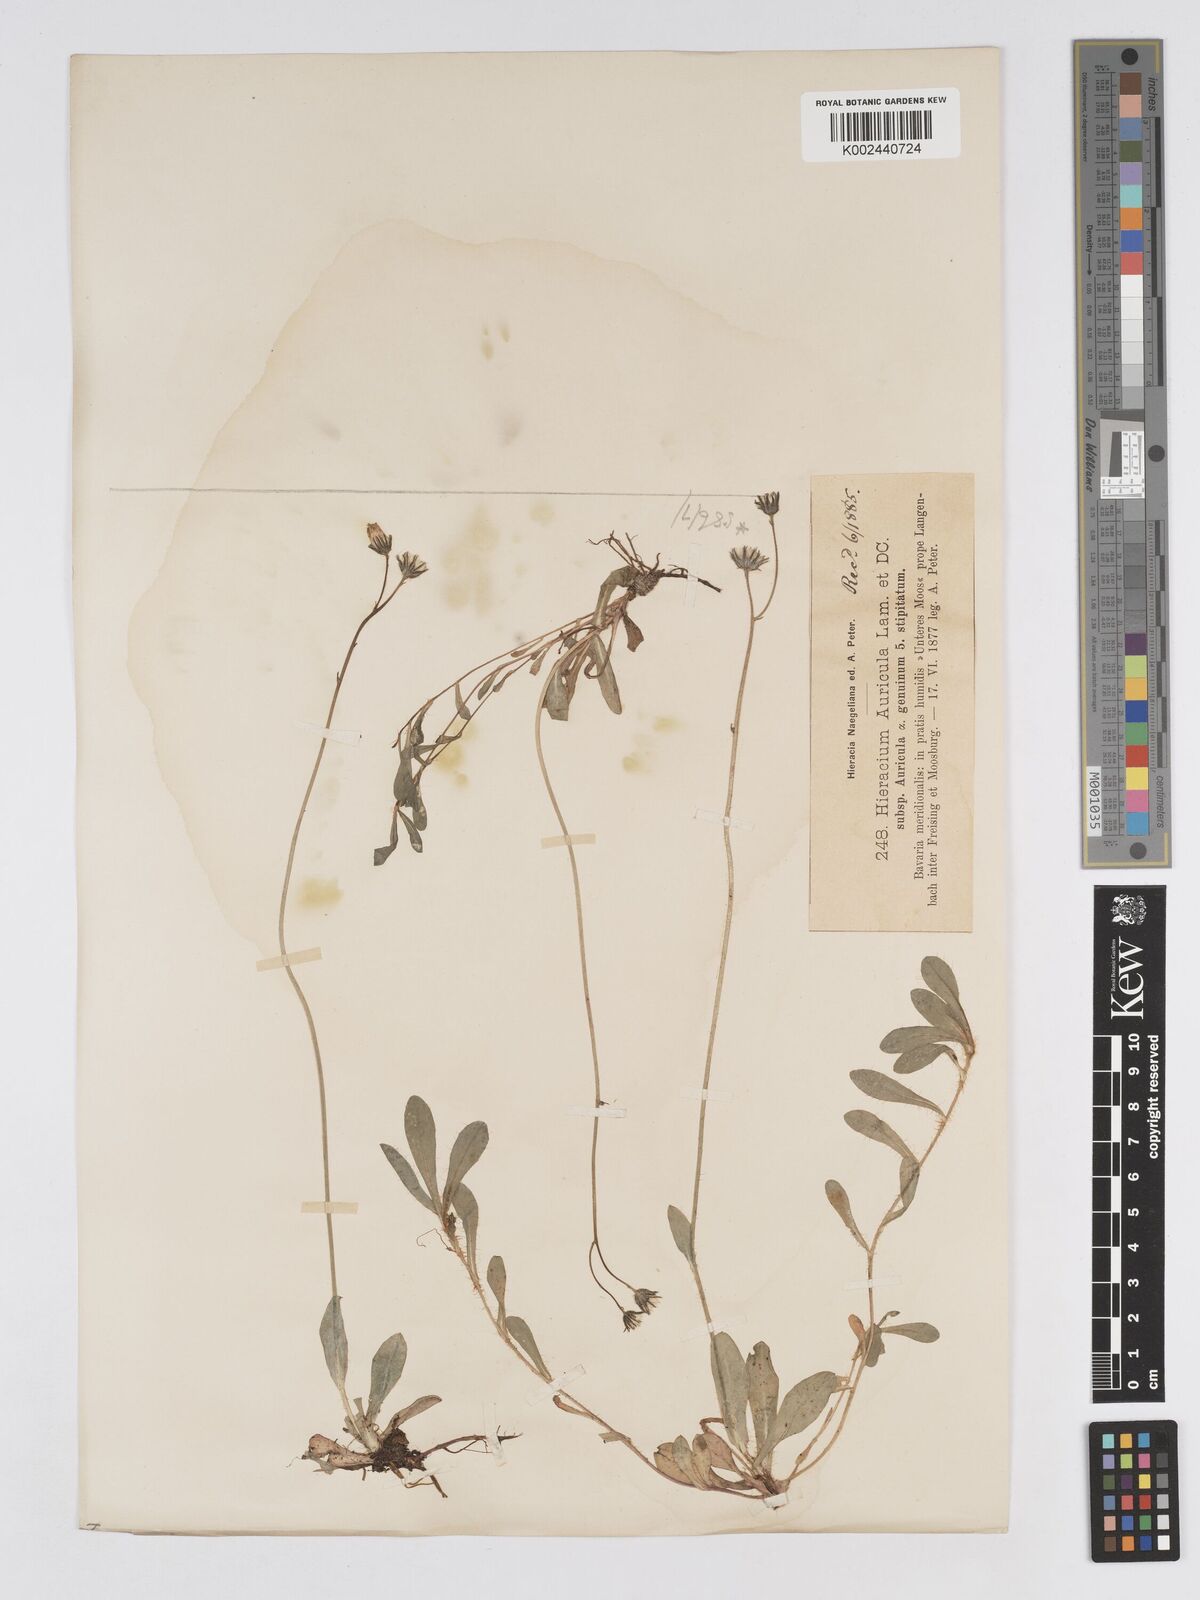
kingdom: Plantae
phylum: Tracheophyta
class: Magnoliopsida
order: Asterales
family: Asteraceae
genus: Pilosella
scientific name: Pilosella floribunda
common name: Glaucous hawkweed
